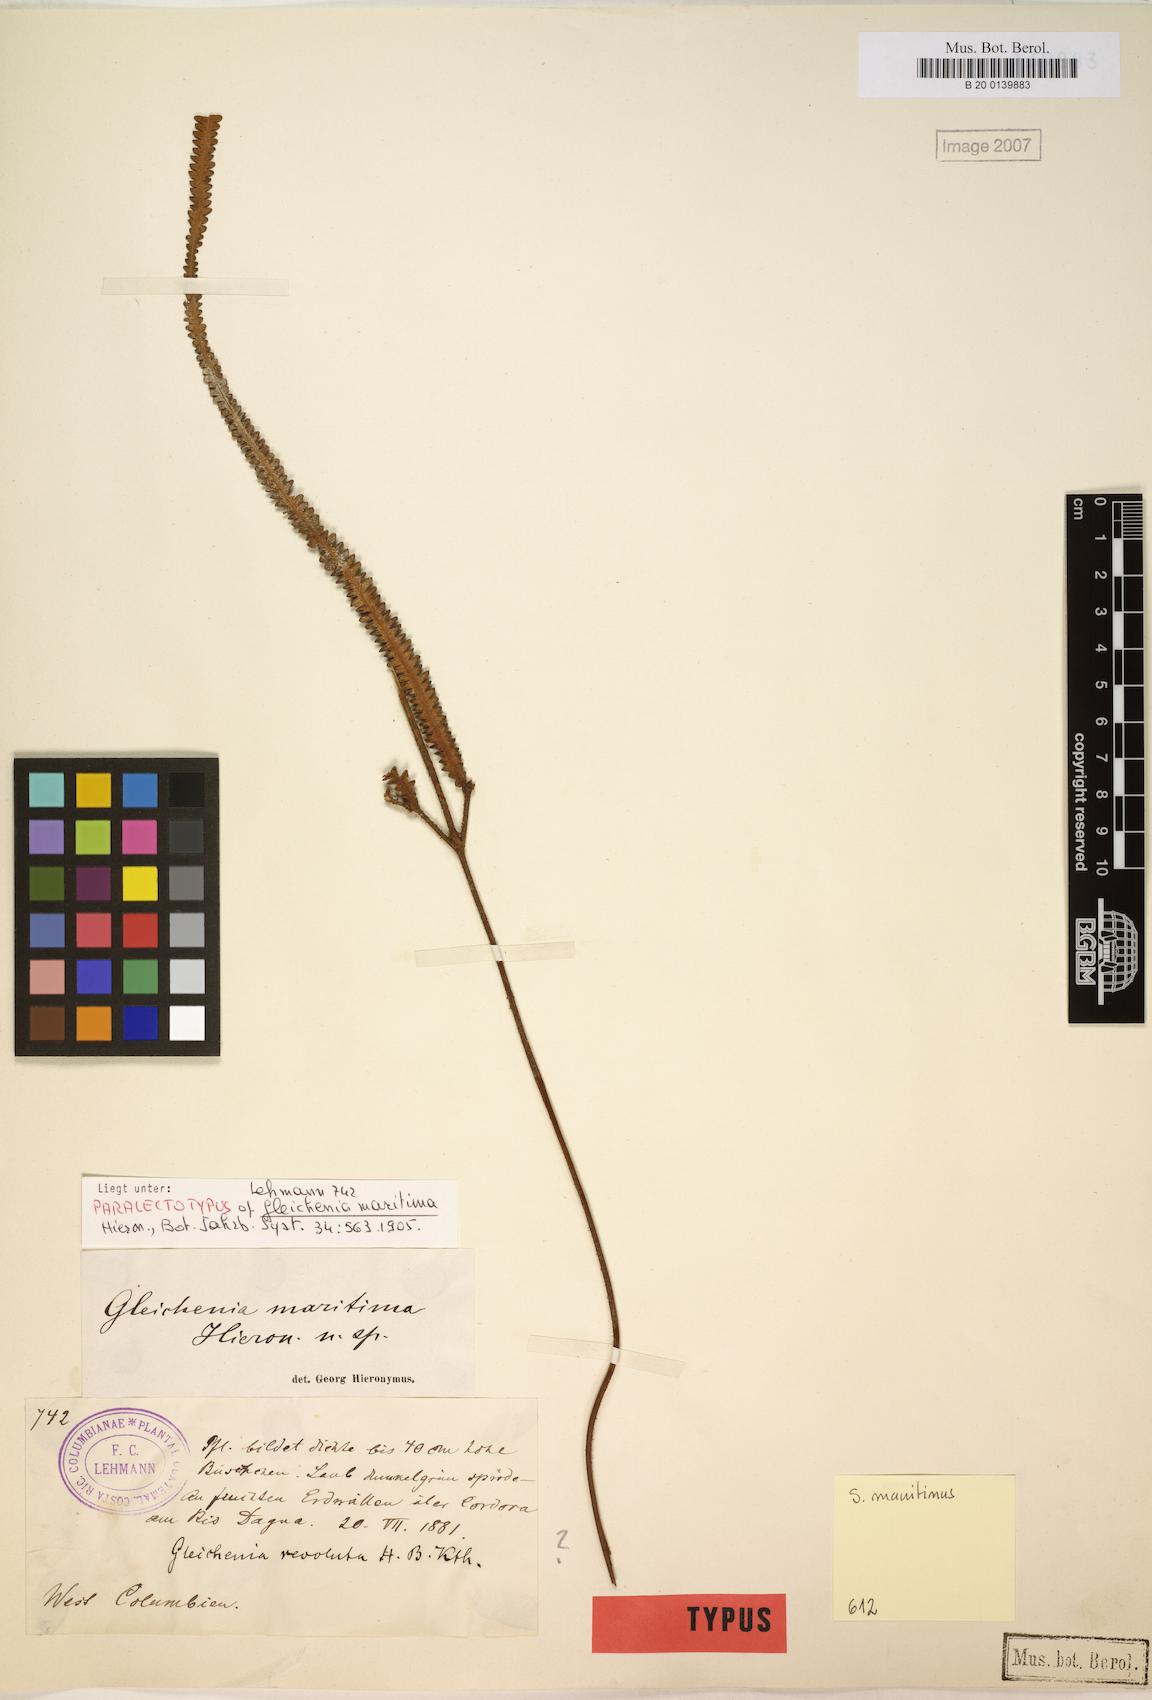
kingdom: Plantae
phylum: Tracheophyta
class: Polypodiopsida
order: Gleicheniales
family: Gleicheniaceae
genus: Sticherus
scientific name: Sticherus maritimus
